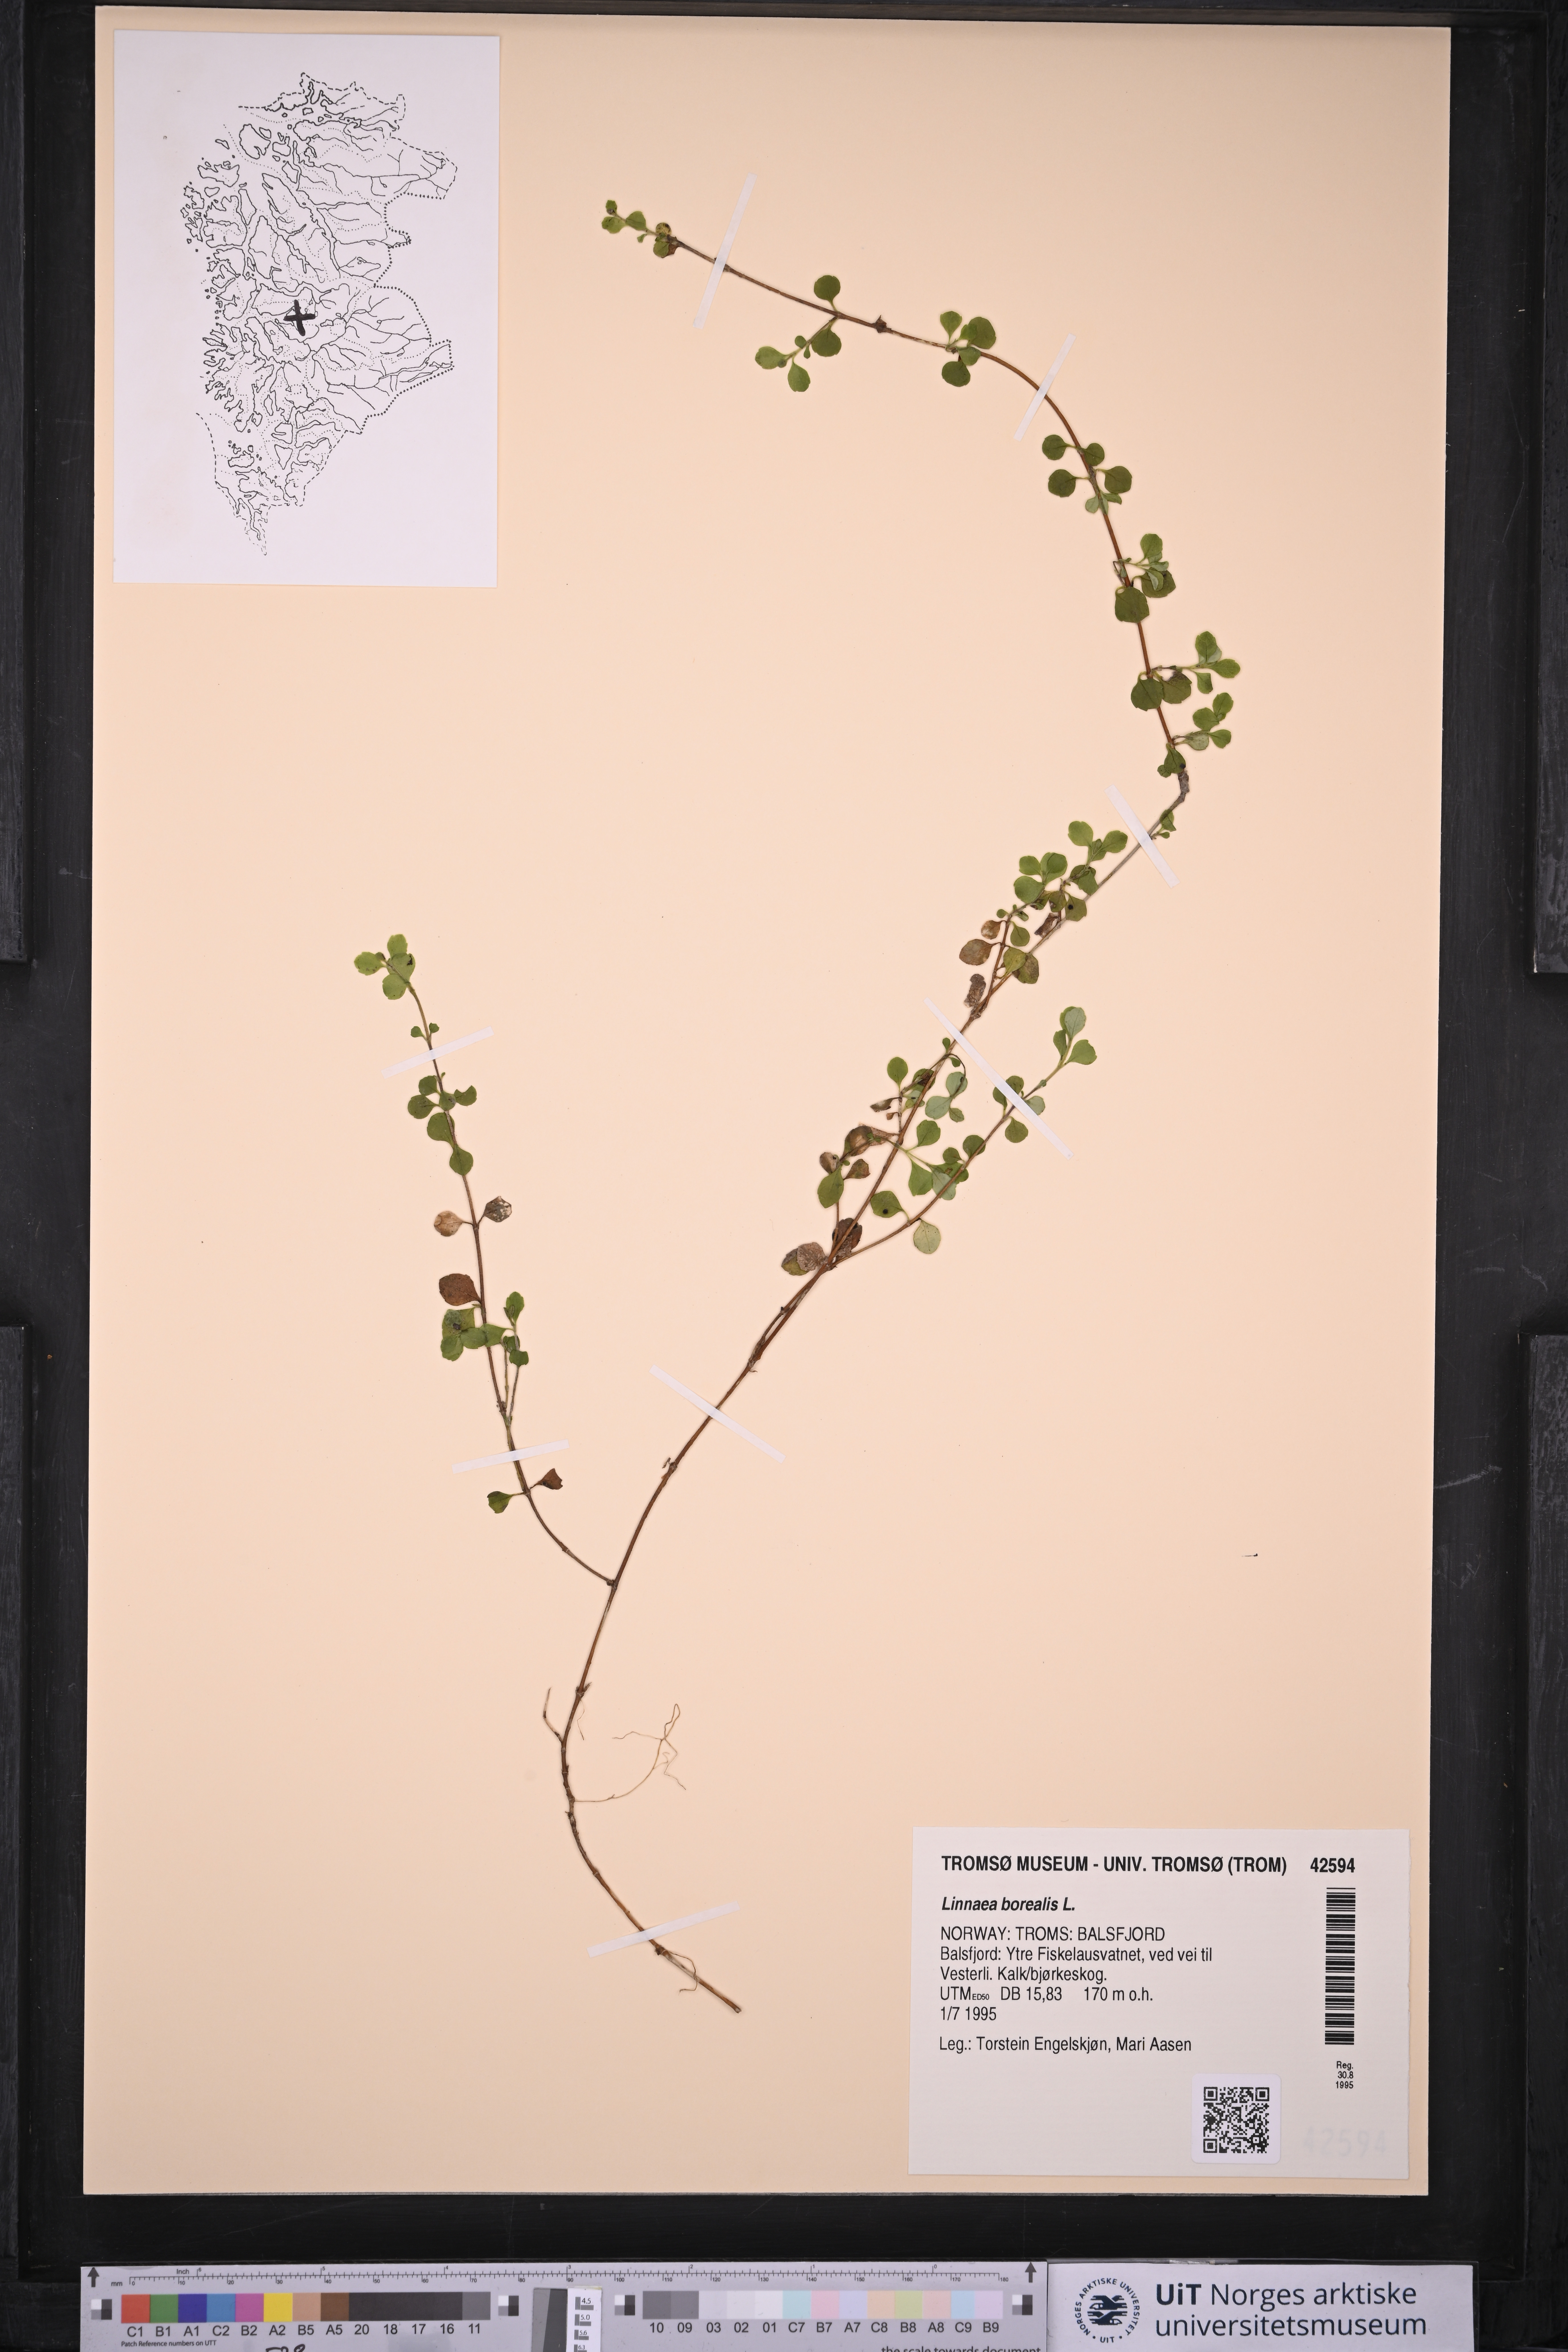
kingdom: Plantae
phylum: Tracheophyta
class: Magnoliopsida
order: Dipsacales
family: Caprifoliaceae
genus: Linnaea
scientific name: Linnaea borealis
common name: Twinflower
